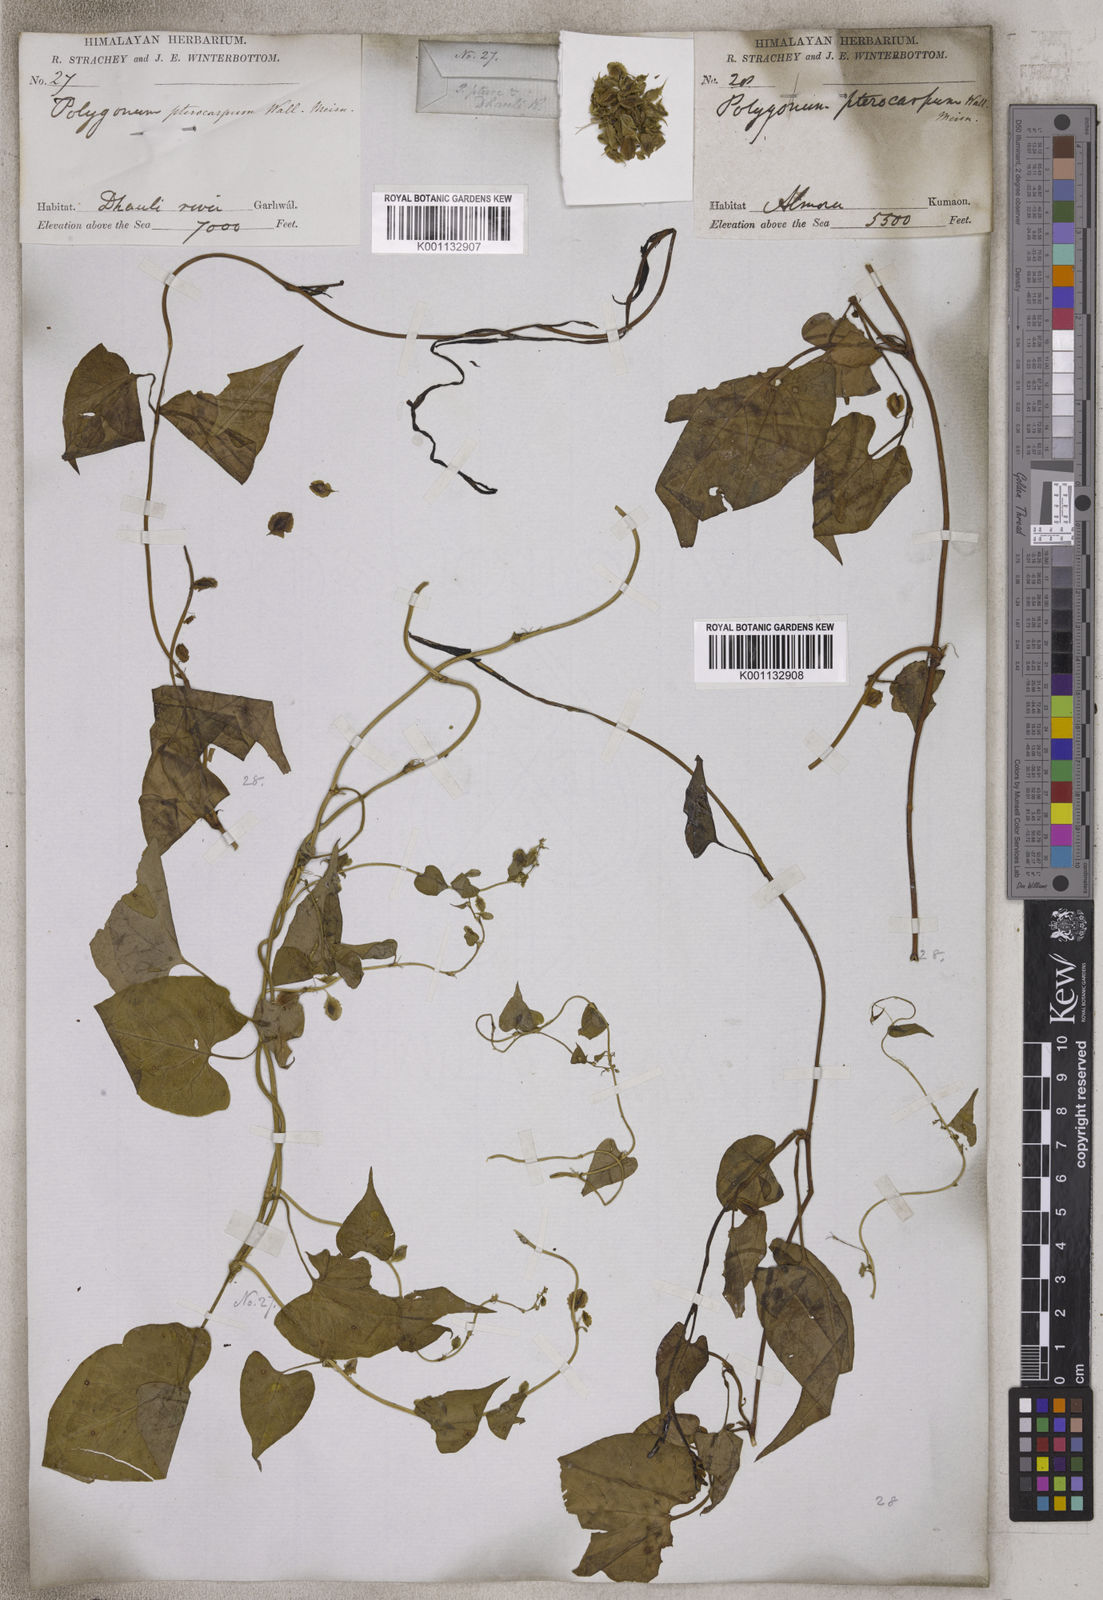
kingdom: Plantae
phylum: Tracheophyta
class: Magnoliopsida
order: Caryophyllales
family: Polygonaceae
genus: Polygonum
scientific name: Polygonum
